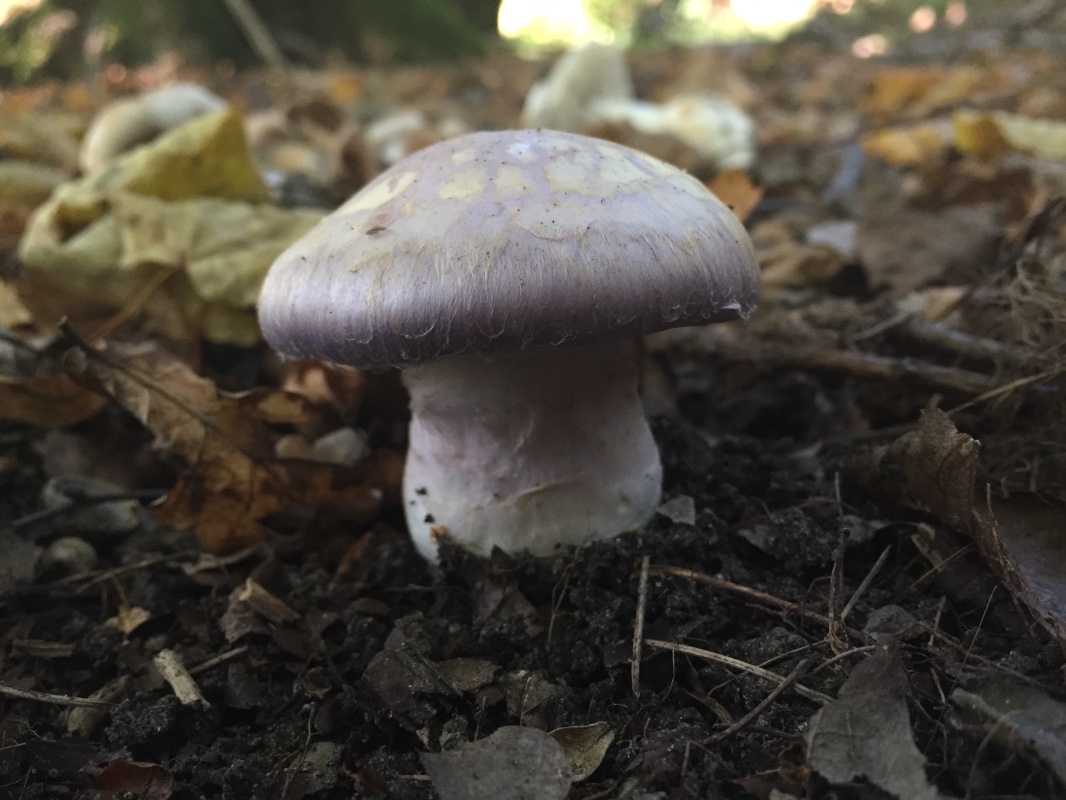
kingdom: Fungi
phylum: Basidiomycota
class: Agaricomycetes
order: Agaricales
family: Cortinariaceae
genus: Phlegmacium
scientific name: Phlegmacium balteatocumatile
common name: violettrådet slørhat
